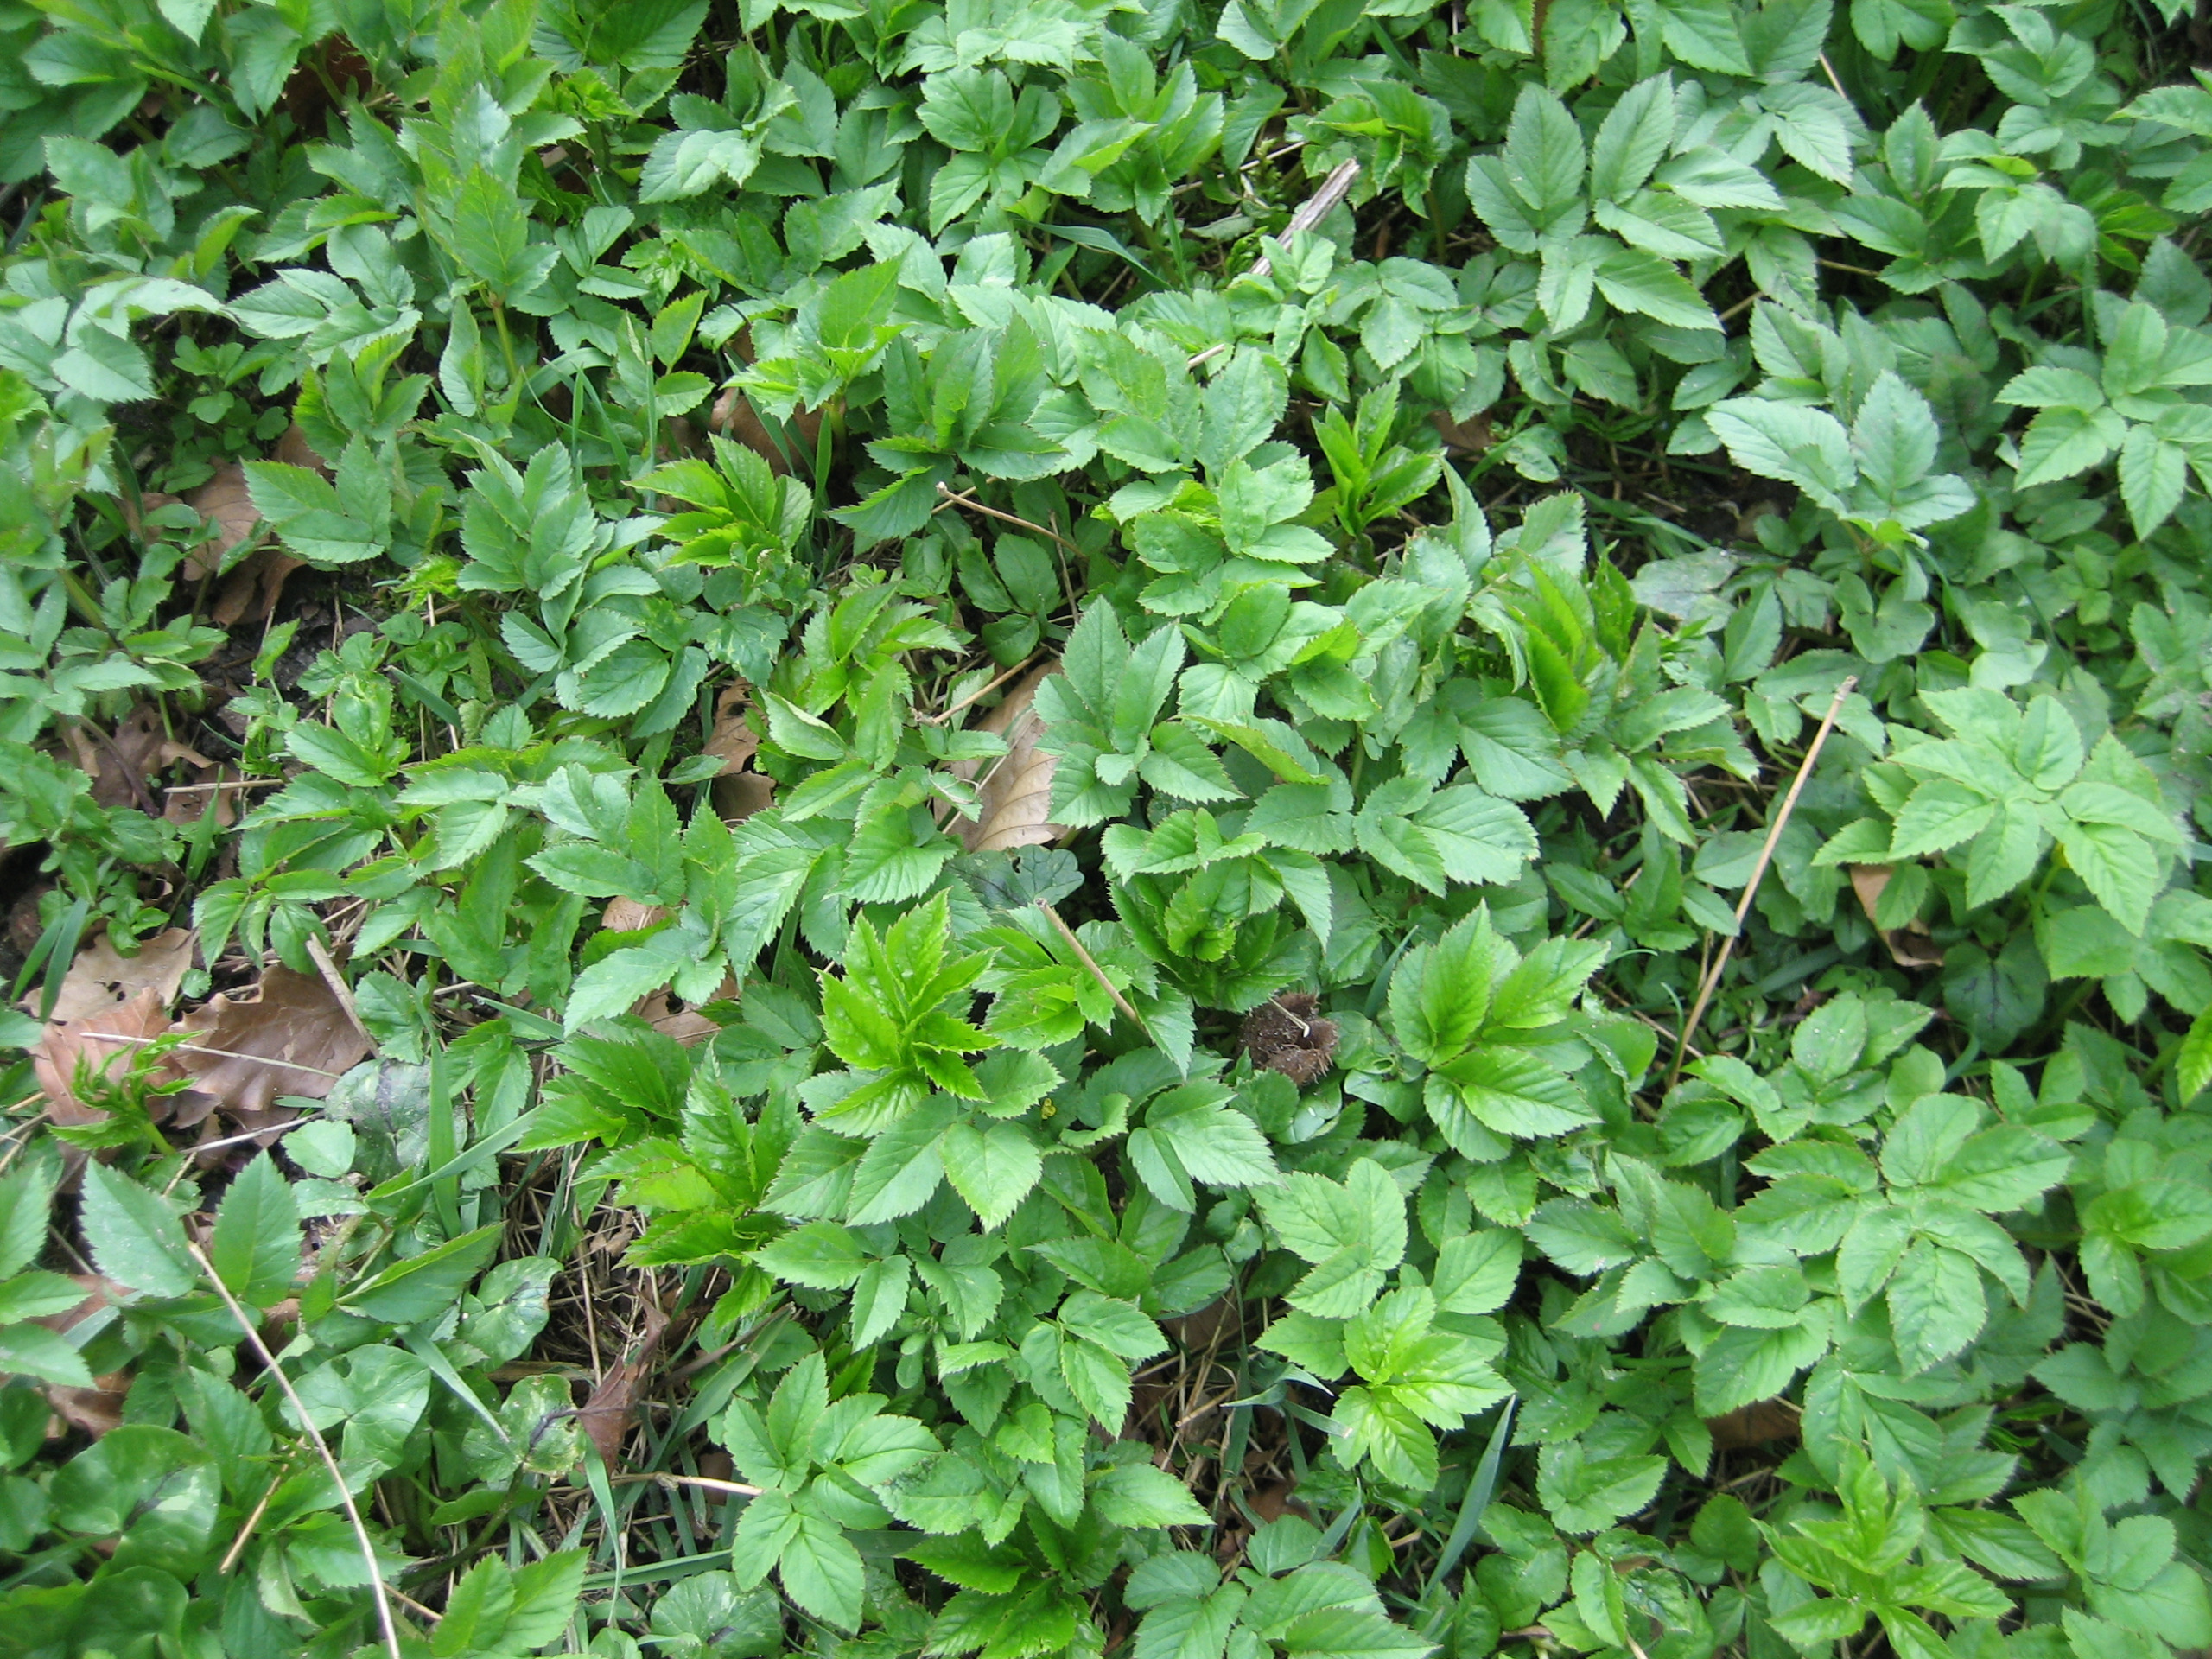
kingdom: Plantae
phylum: Tracheophyta
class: Magnoliopsida
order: Apiales
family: Apiaceae
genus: Aegopodium
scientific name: Aegopodium podagraria
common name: Skvalderkål
